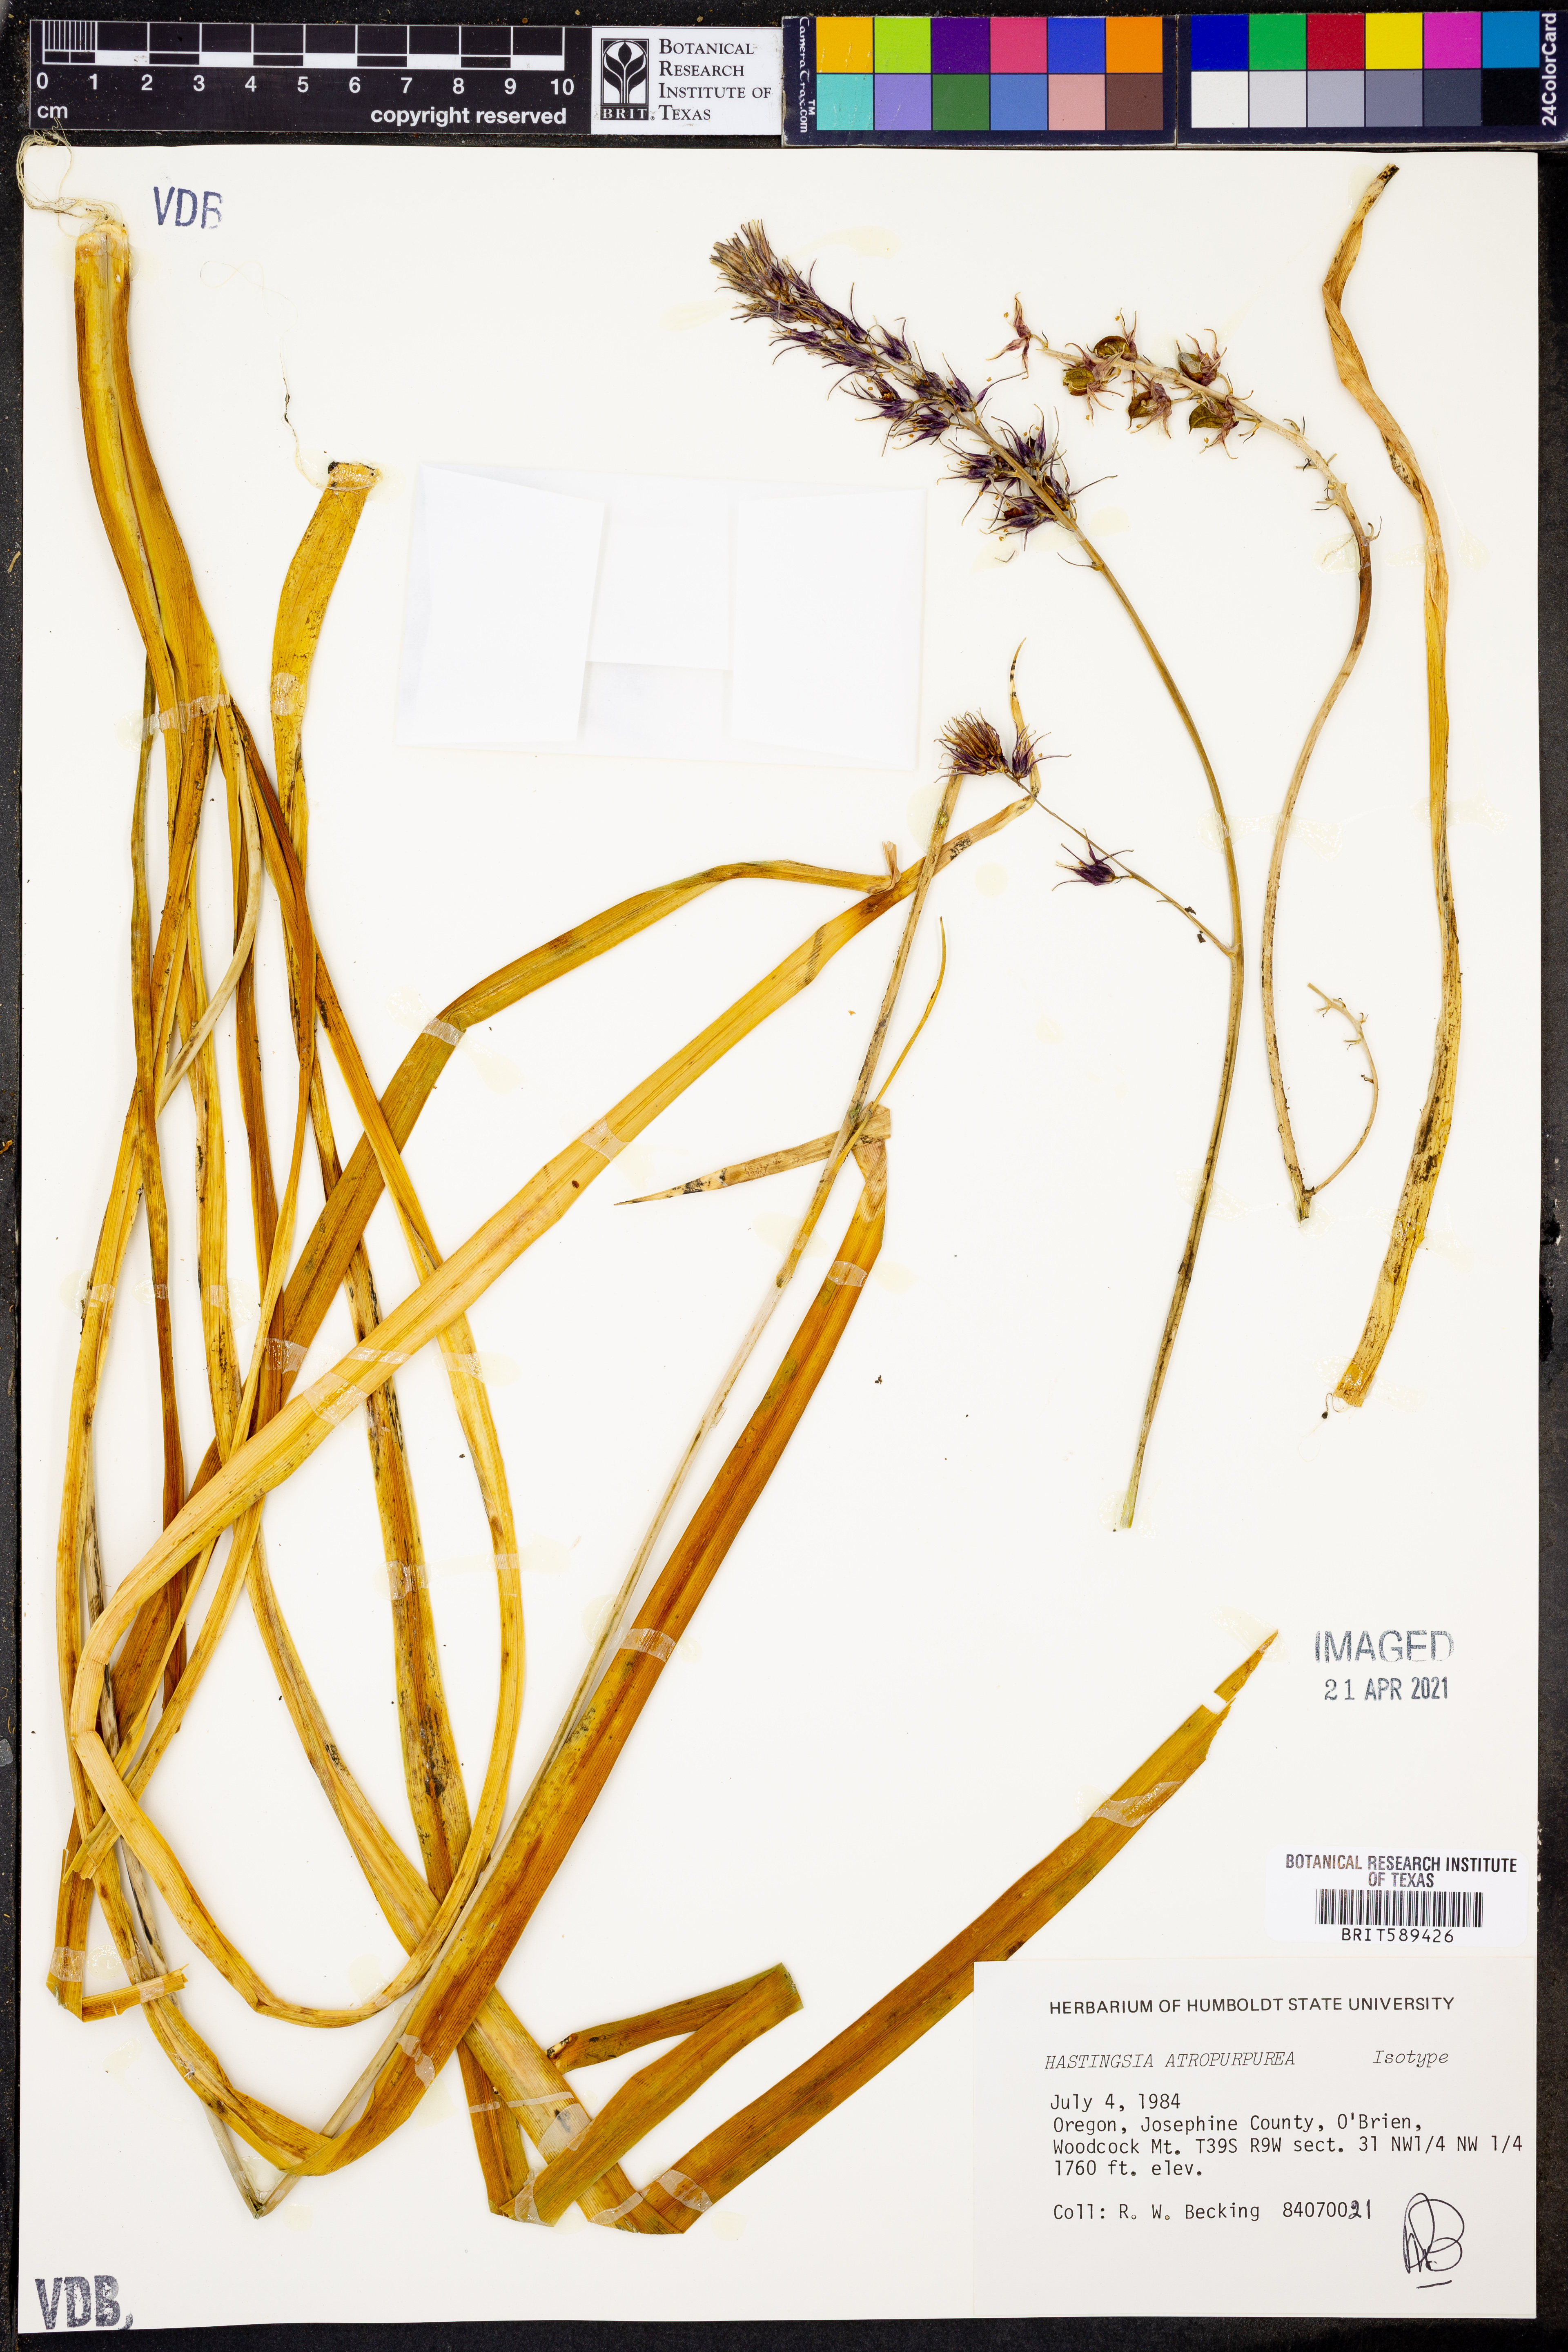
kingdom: Plantae
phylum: Tracheophyta
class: Liliopsida
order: Asparagales
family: Asparagaceae
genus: Hastingsia
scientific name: Hastingsia atropurpurea
